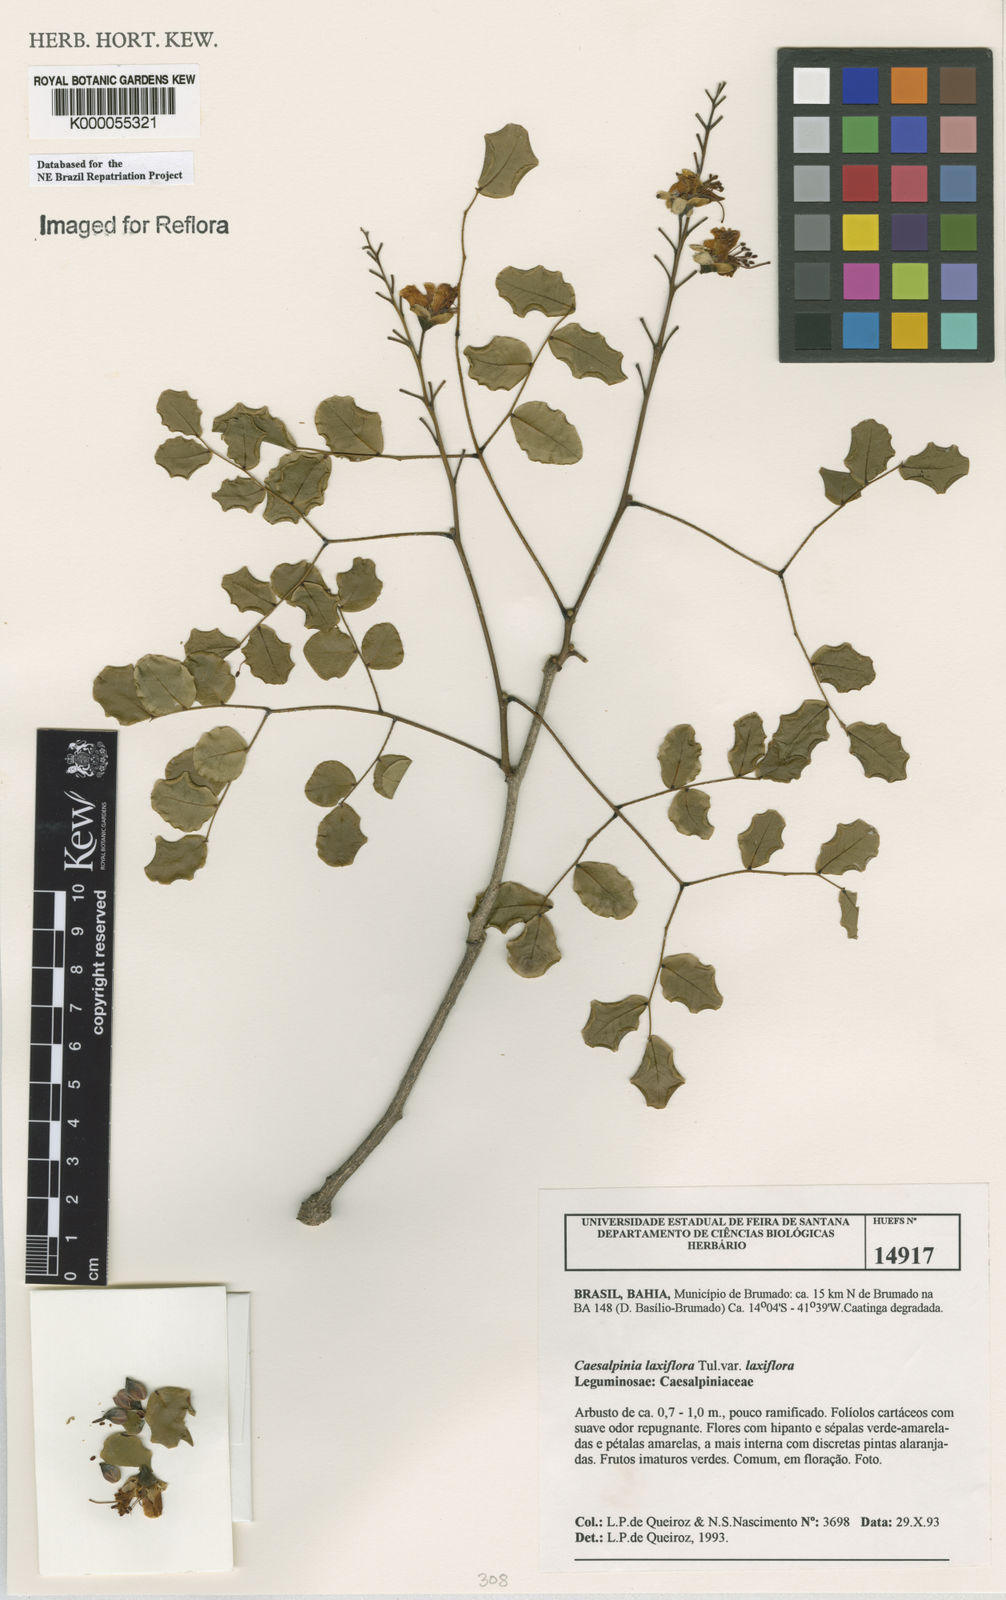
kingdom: Plantae
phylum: Tracheophyta
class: Magnoliopsida
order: Fabales
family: Fabaceae
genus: Cenostigma
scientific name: Cenostigma laxiflorum
